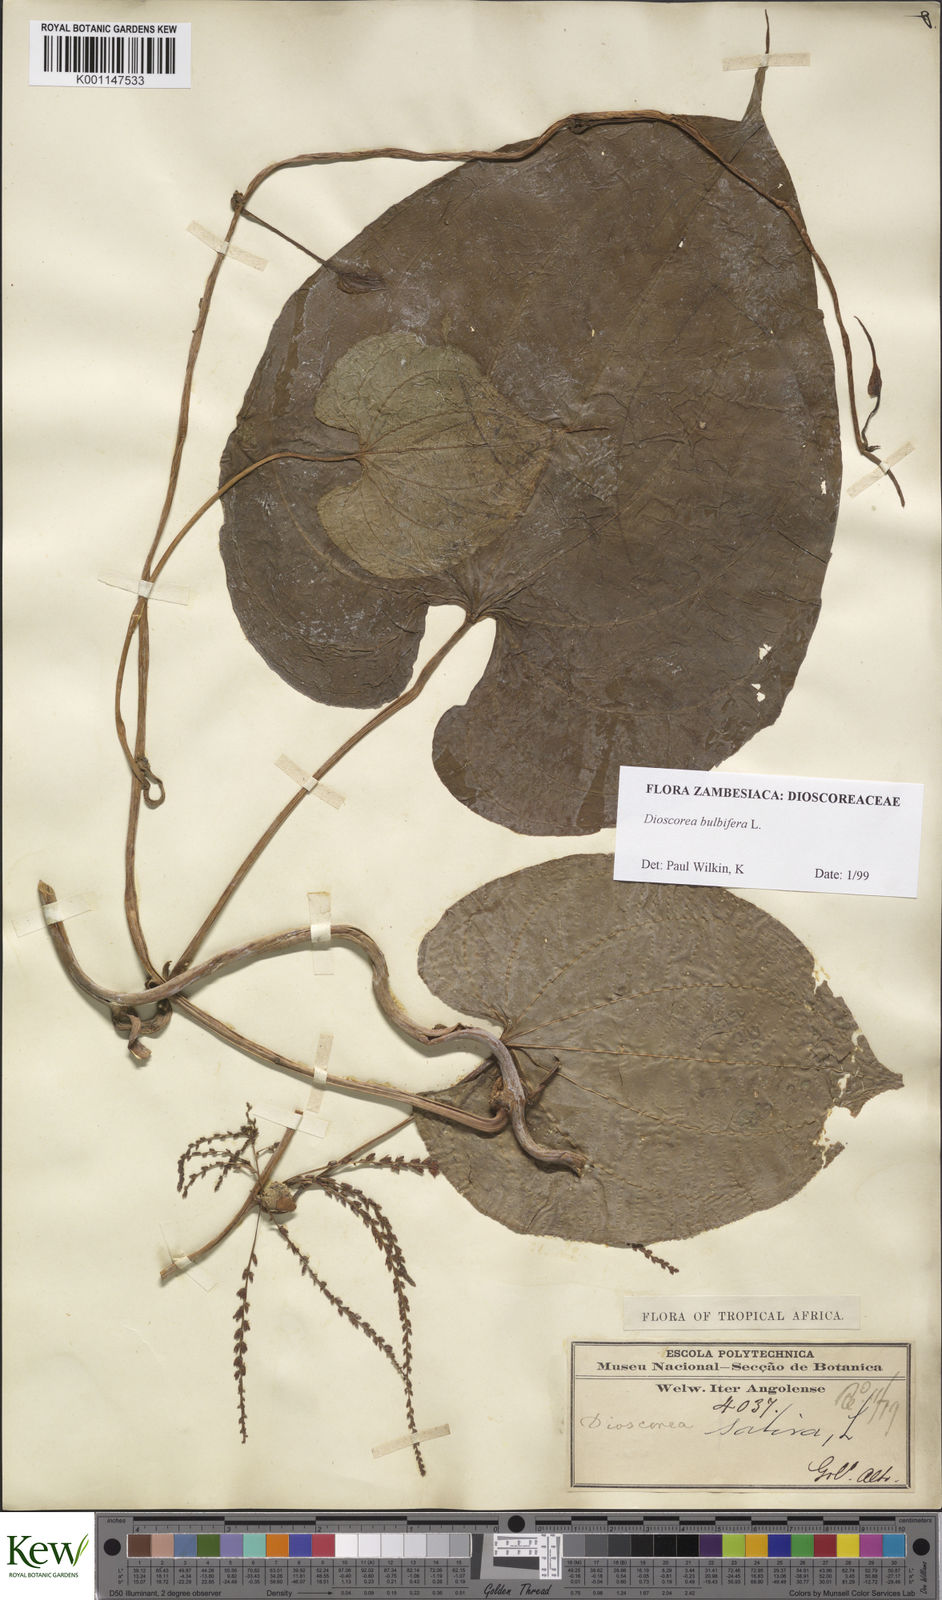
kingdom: Plantae
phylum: Tracheophyta
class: Liliopsida
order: Dioscoreales
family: Dioscoreaceae
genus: Dioscorea
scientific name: Dioscorea bulbifera
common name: Air yam
